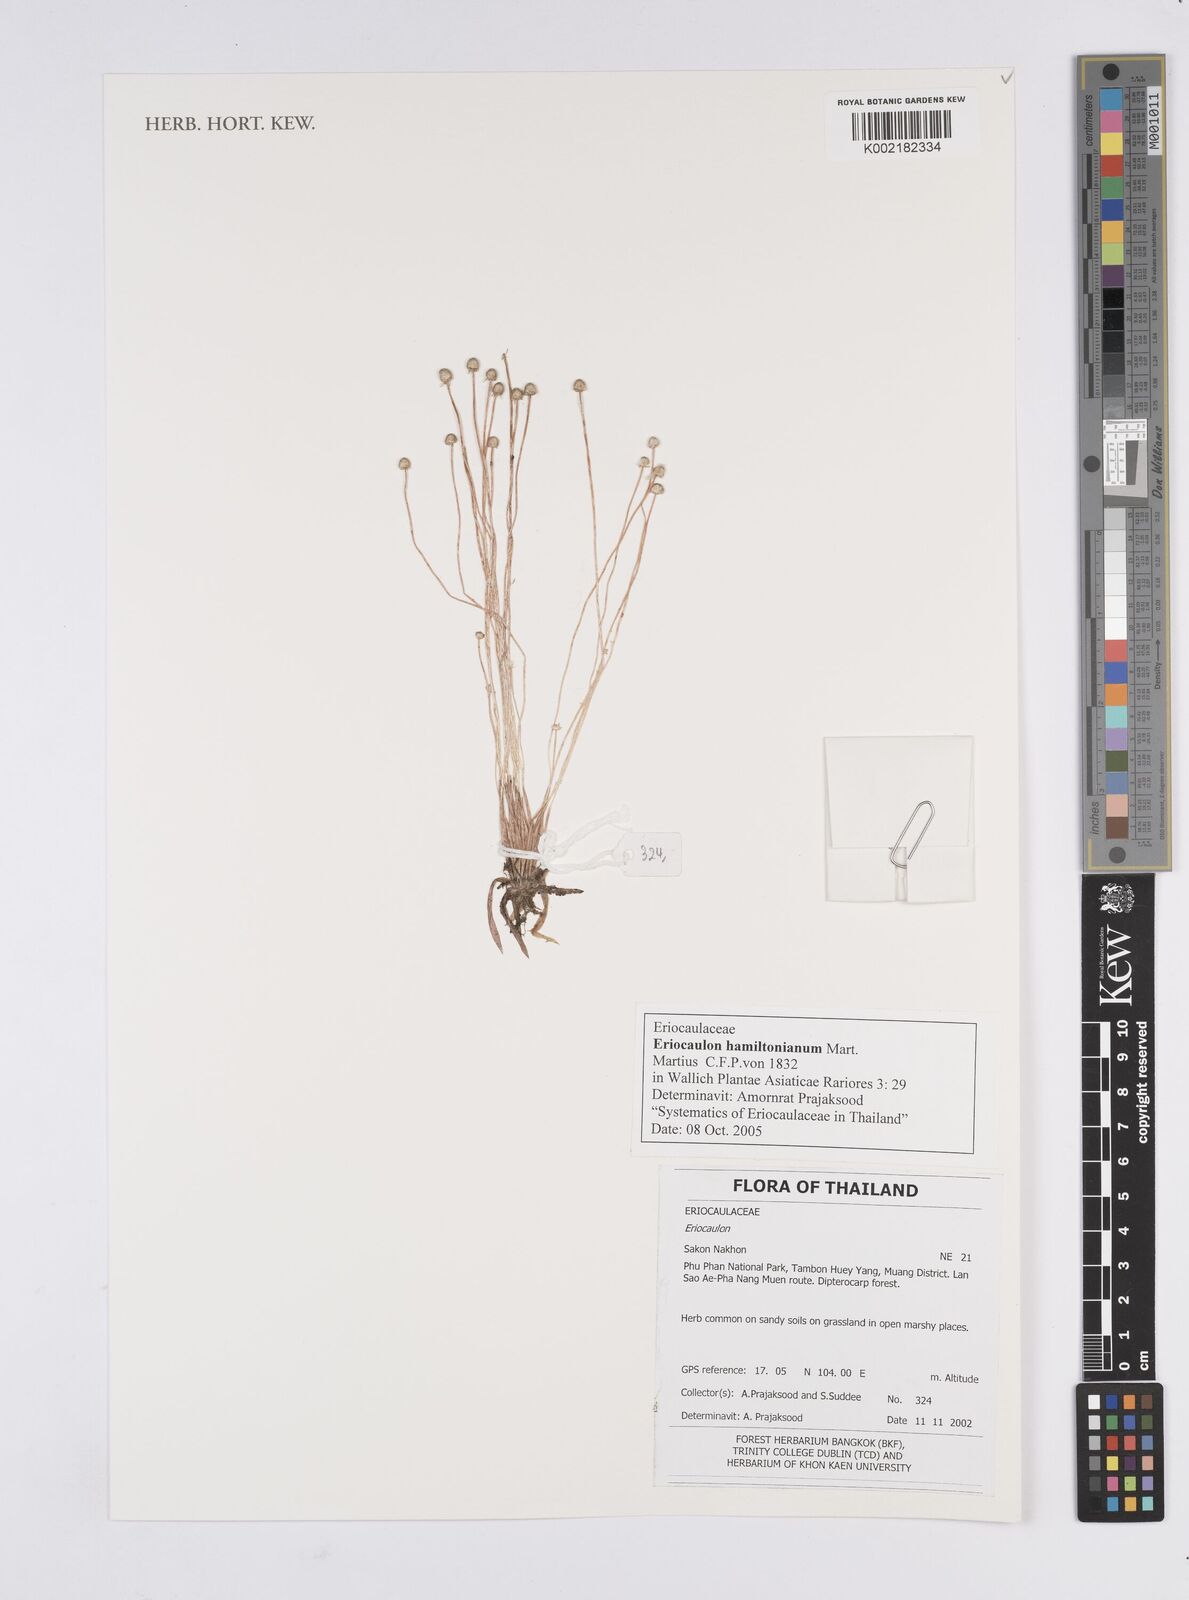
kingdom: Plantae
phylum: Tracheophyta
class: Liliopsida
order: Poales
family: Eriocaulaceae
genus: Eriocaulon
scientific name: Eriocaulon hamiltonianum
